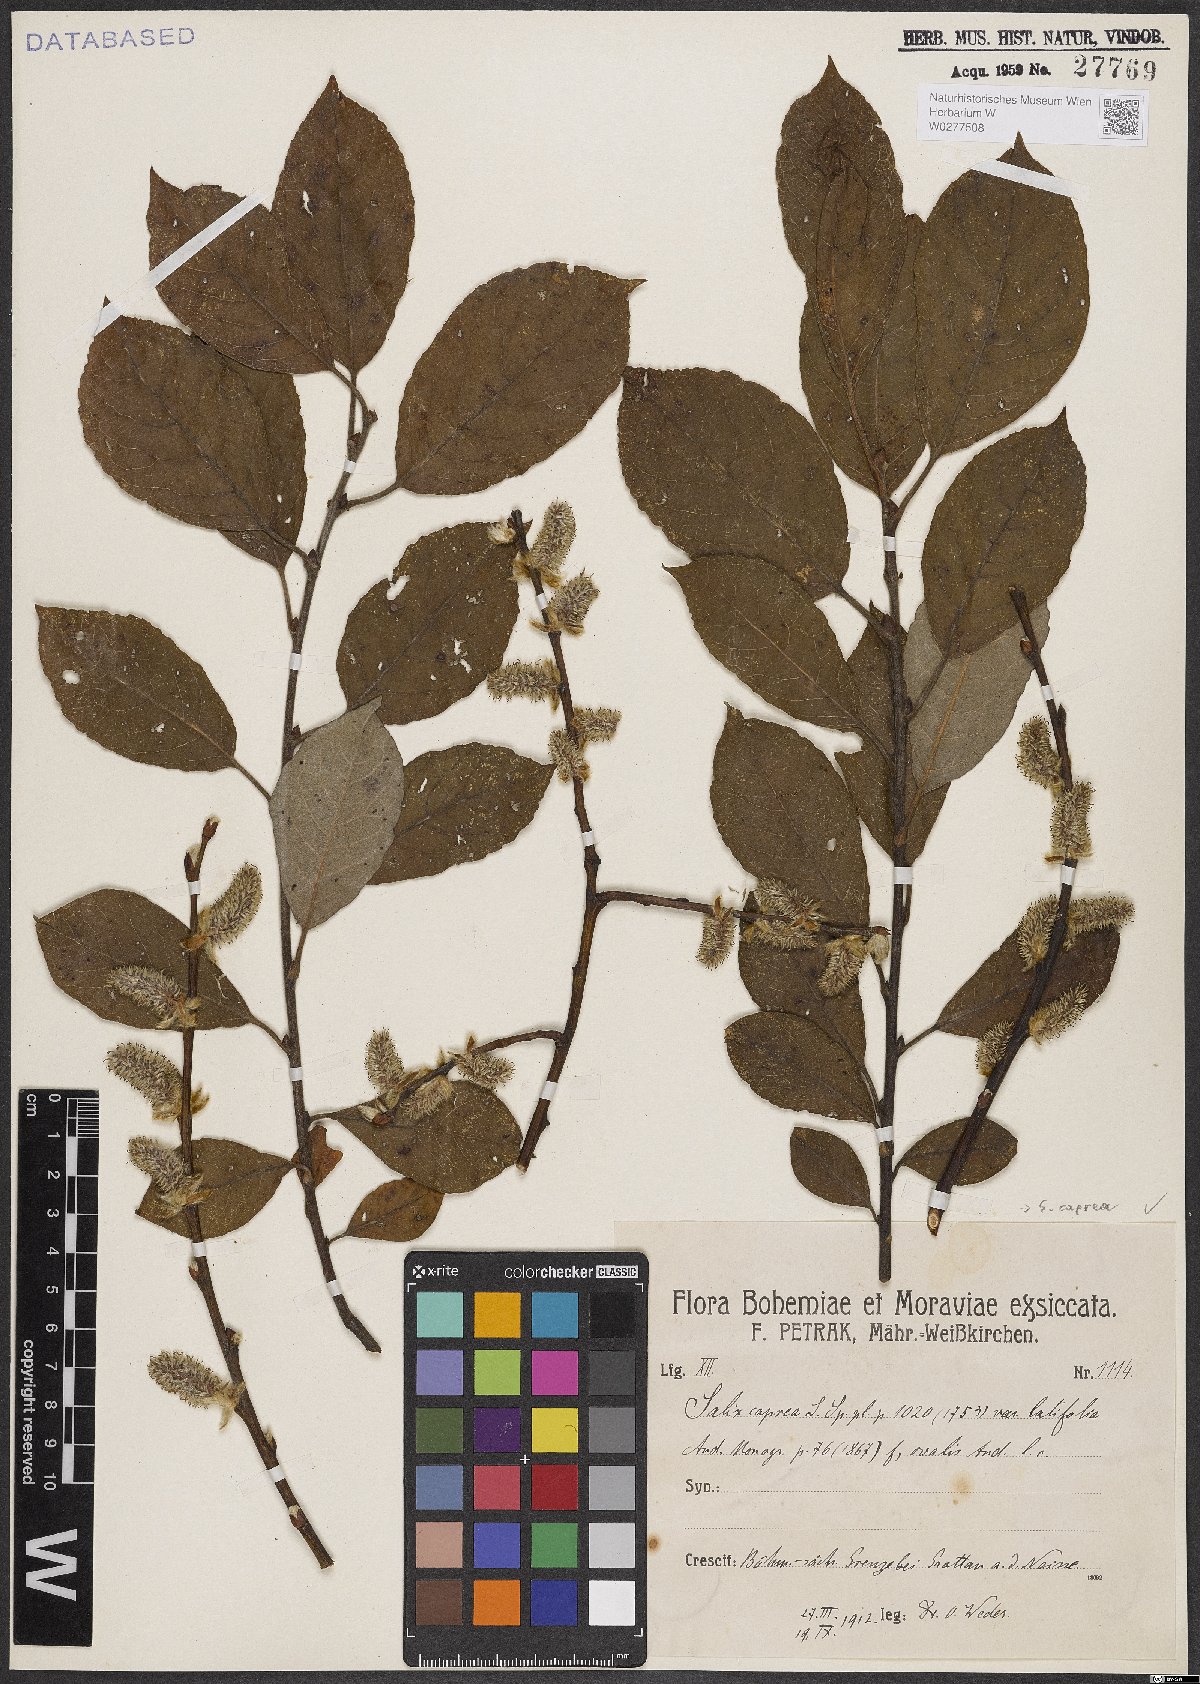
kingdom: Plantae
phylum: Tracheophyta
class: Magnoliopsida
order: Malpighiales
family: Salicaceae
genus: Salix
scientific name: Salix caprea
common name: Goat willow
